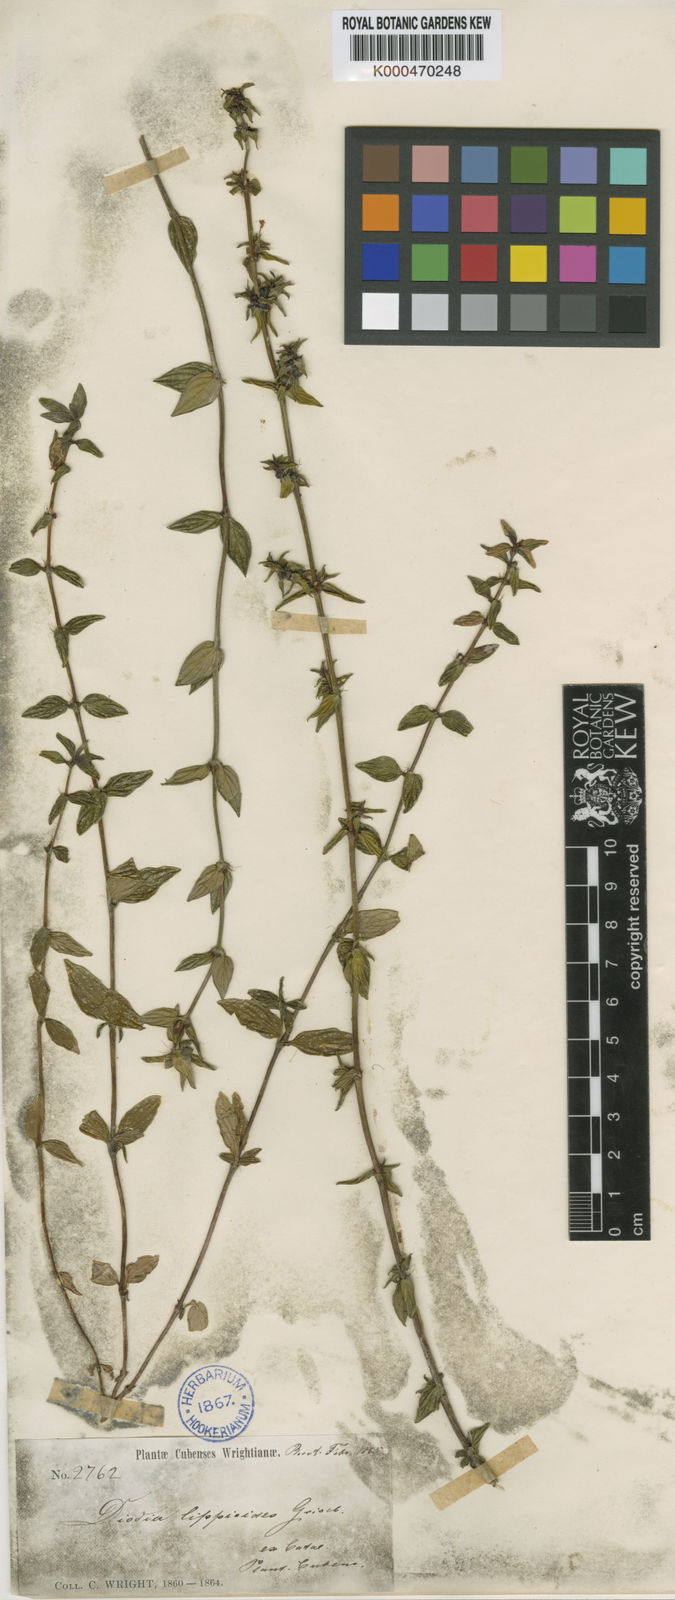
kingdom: Plantae
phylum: Tracheophyta
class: Magnoliopsida
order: Gentianales
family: Rubiaceae
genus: Diodia
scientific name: Diodia simplex
